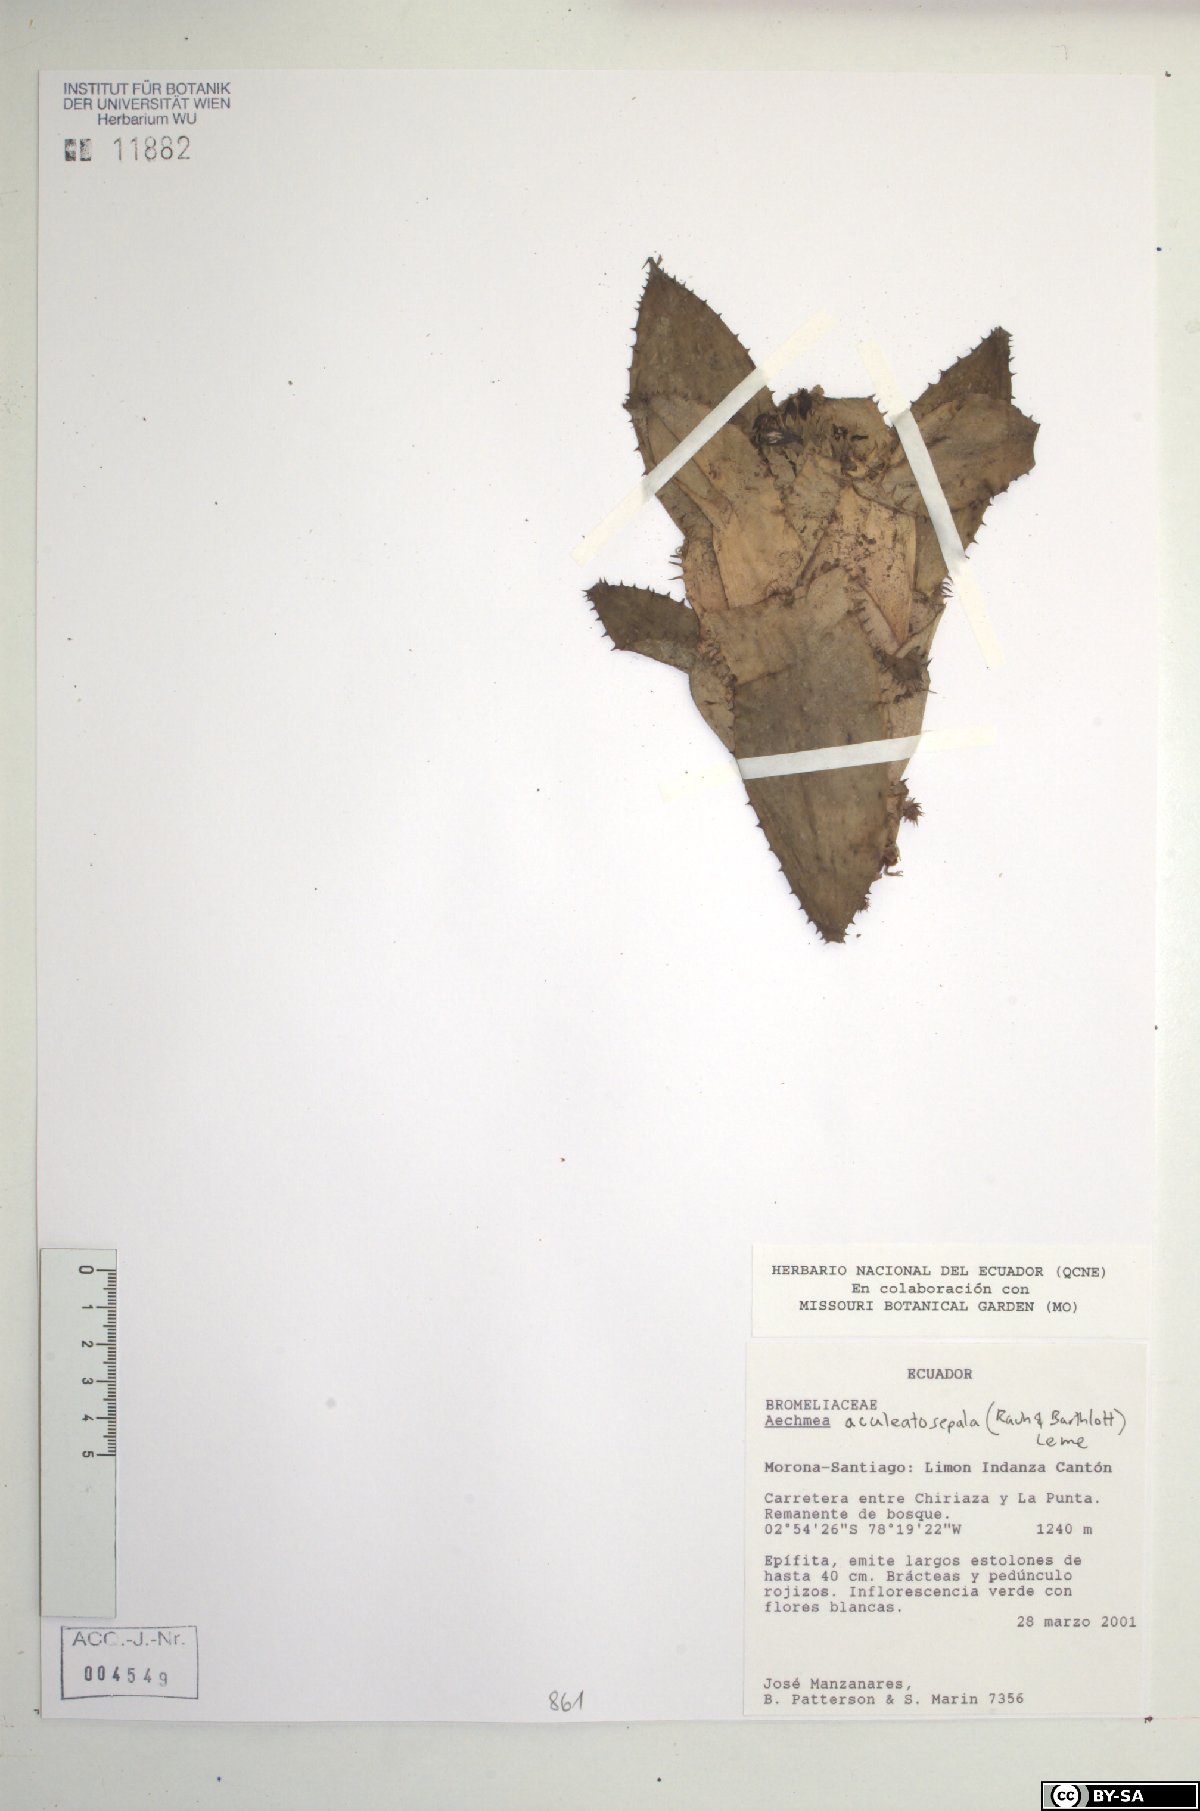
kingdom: Plantae
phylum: Tracheophyta
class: Liliopsida
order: Poales
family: Bromeliaceae
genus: Aechmea
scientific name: Aechmea aculeatosepala
